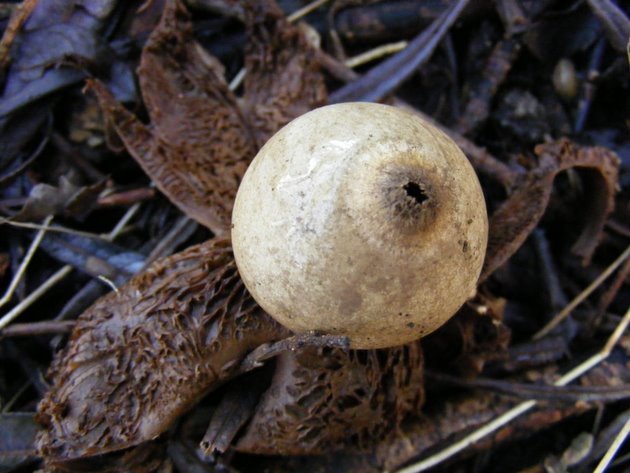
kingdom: Fungi
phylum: Basidiomycota
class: Agaricomycetes
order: Geastrales
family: Geastraceae
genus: Geastrum
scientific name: Geastrum michelianum
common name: kødet stjernebold
